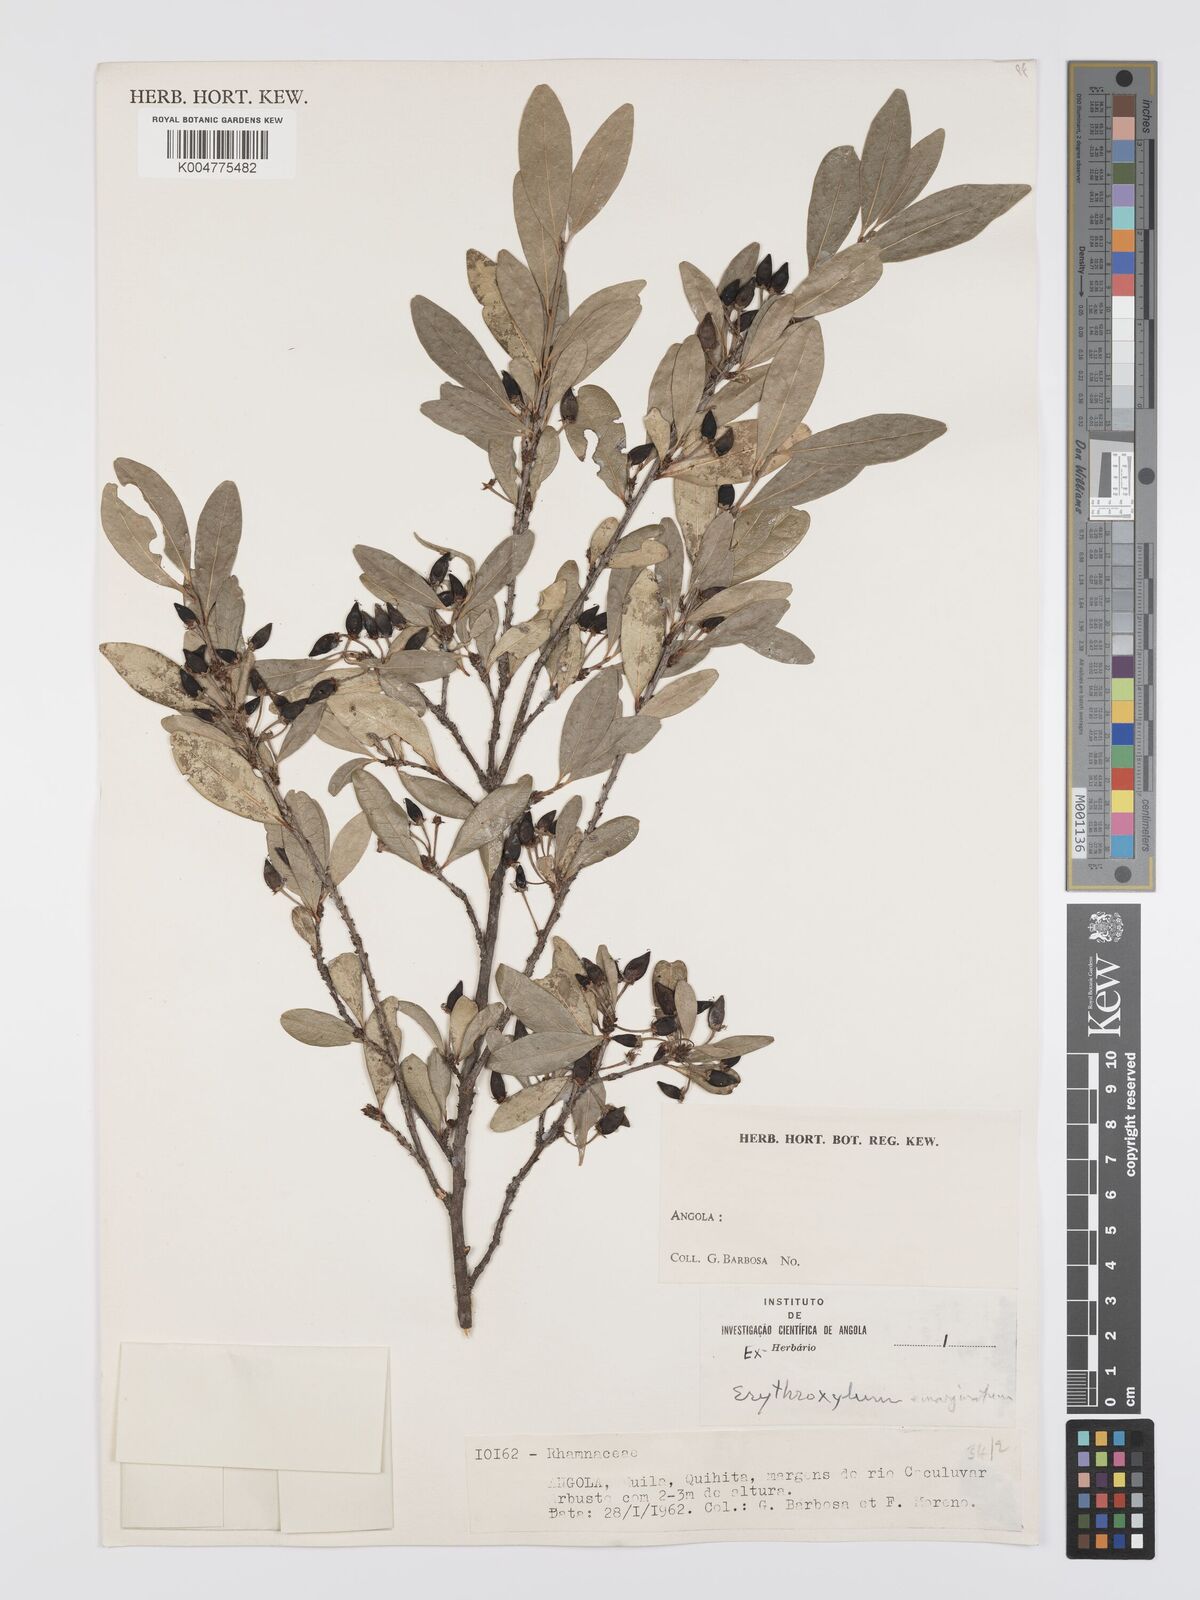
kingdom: Plantae
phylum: Tracheophyta
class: Magnoliopsida
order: Malpighiales
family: Erythroxylaceae
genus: Erythroxylum
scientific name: Erythroxylum emarginatum
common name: African coca-tree
